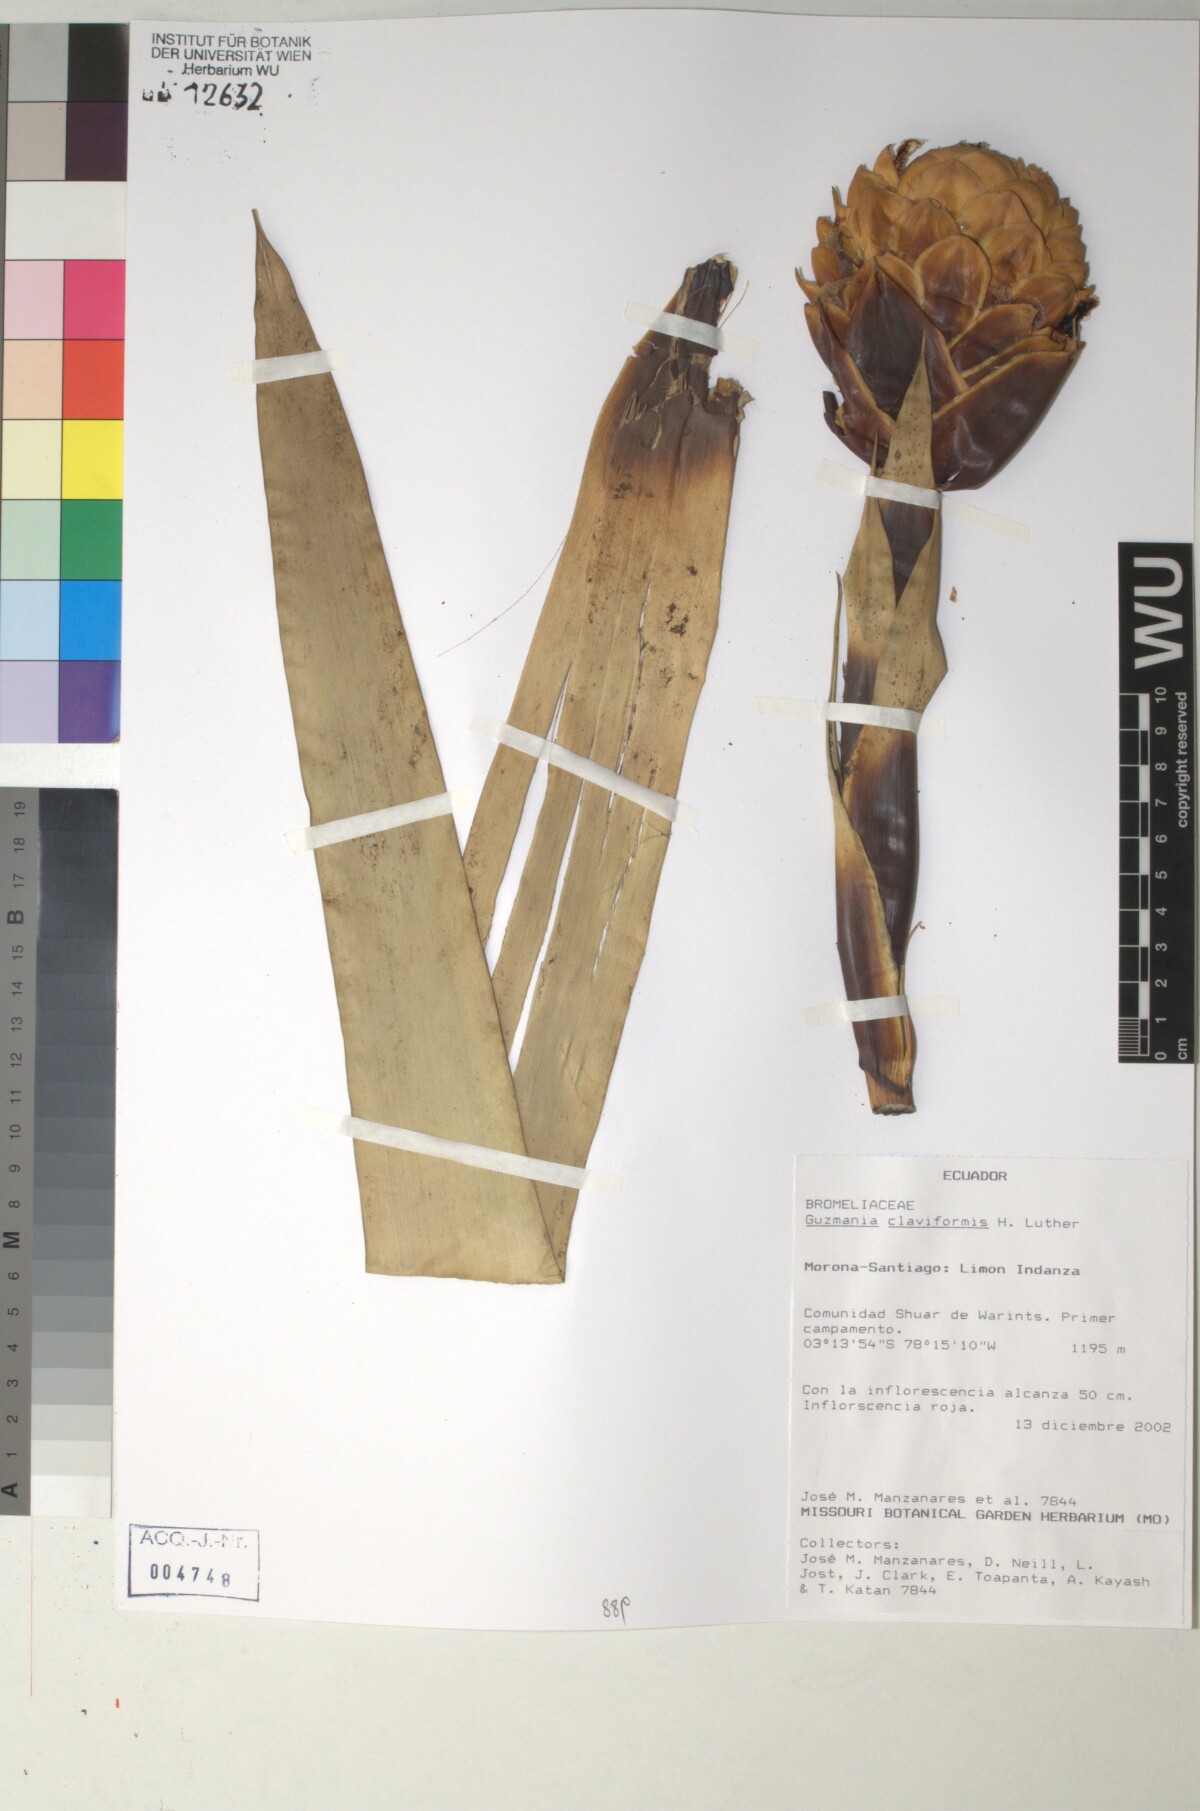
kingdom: Plantae
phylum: Tracheophyta
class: Liliopsida
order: Poales
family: Bromeliaceae
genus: Guzmania
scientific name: Guzmania claviformis
